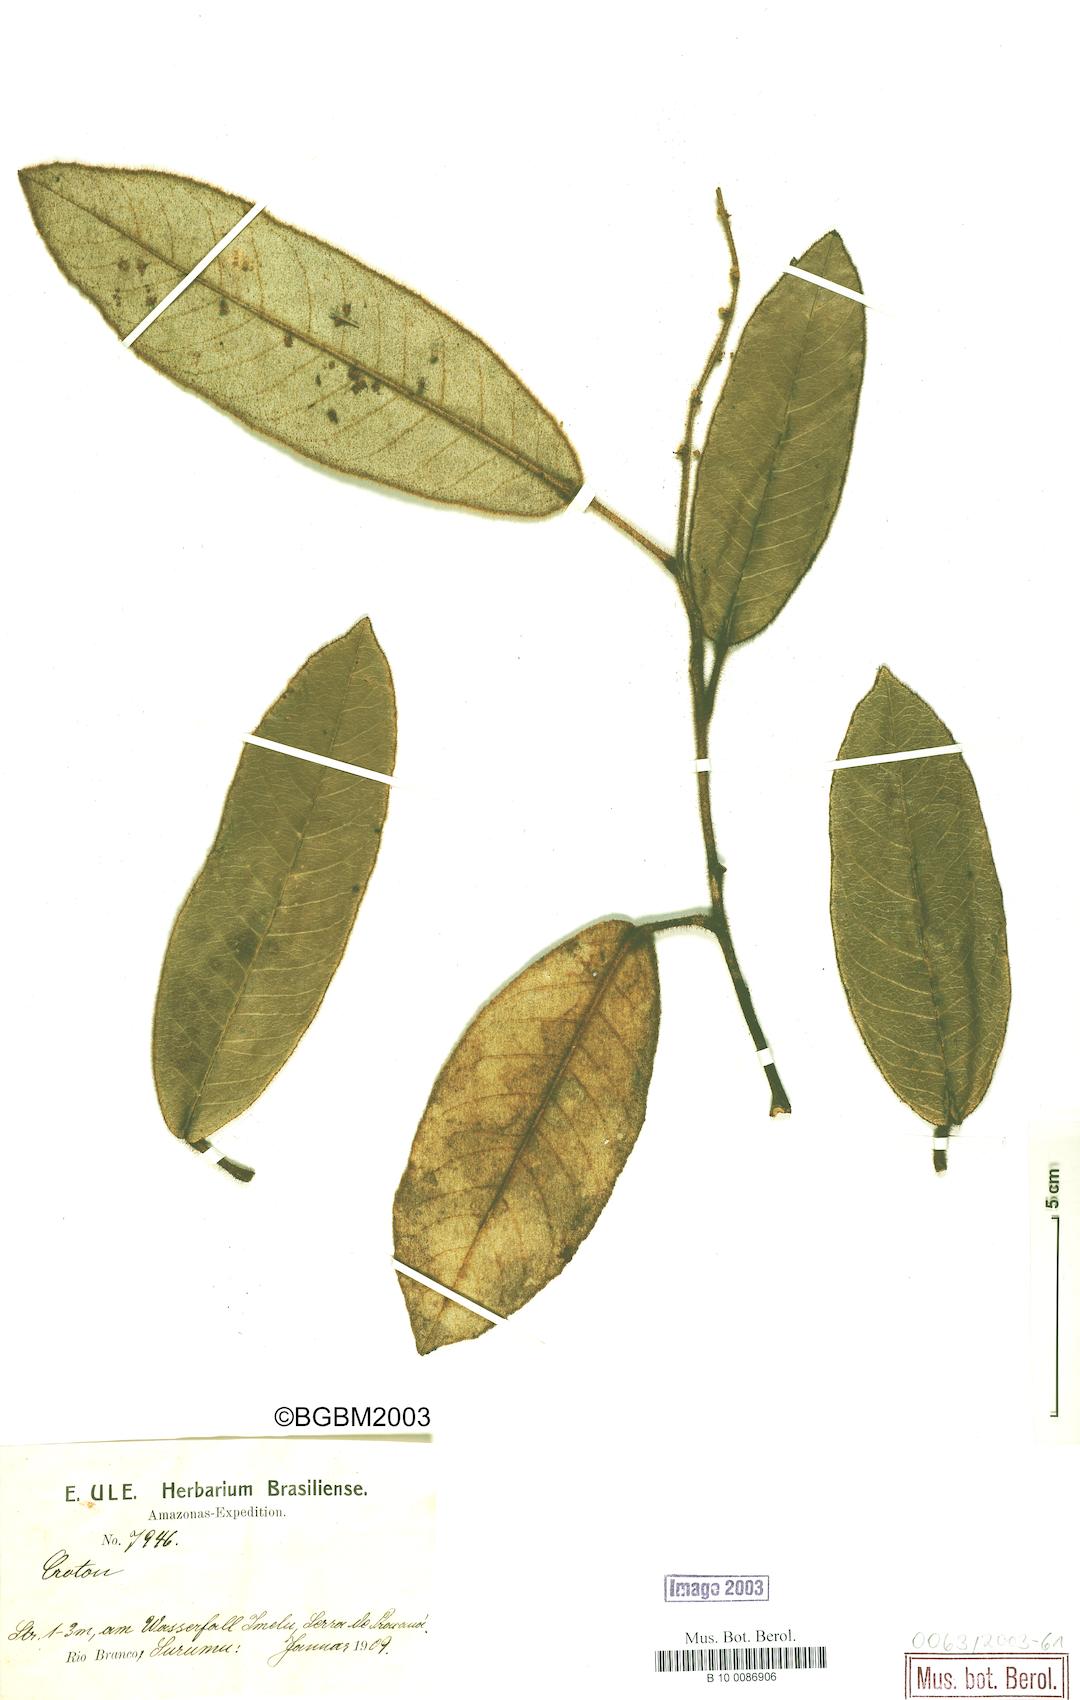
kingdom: Plantae
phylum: Tracheophyta
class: Magnoliopsida
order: Malpighiales
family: Euphorbiaceae
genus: Croton
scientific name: Croton
